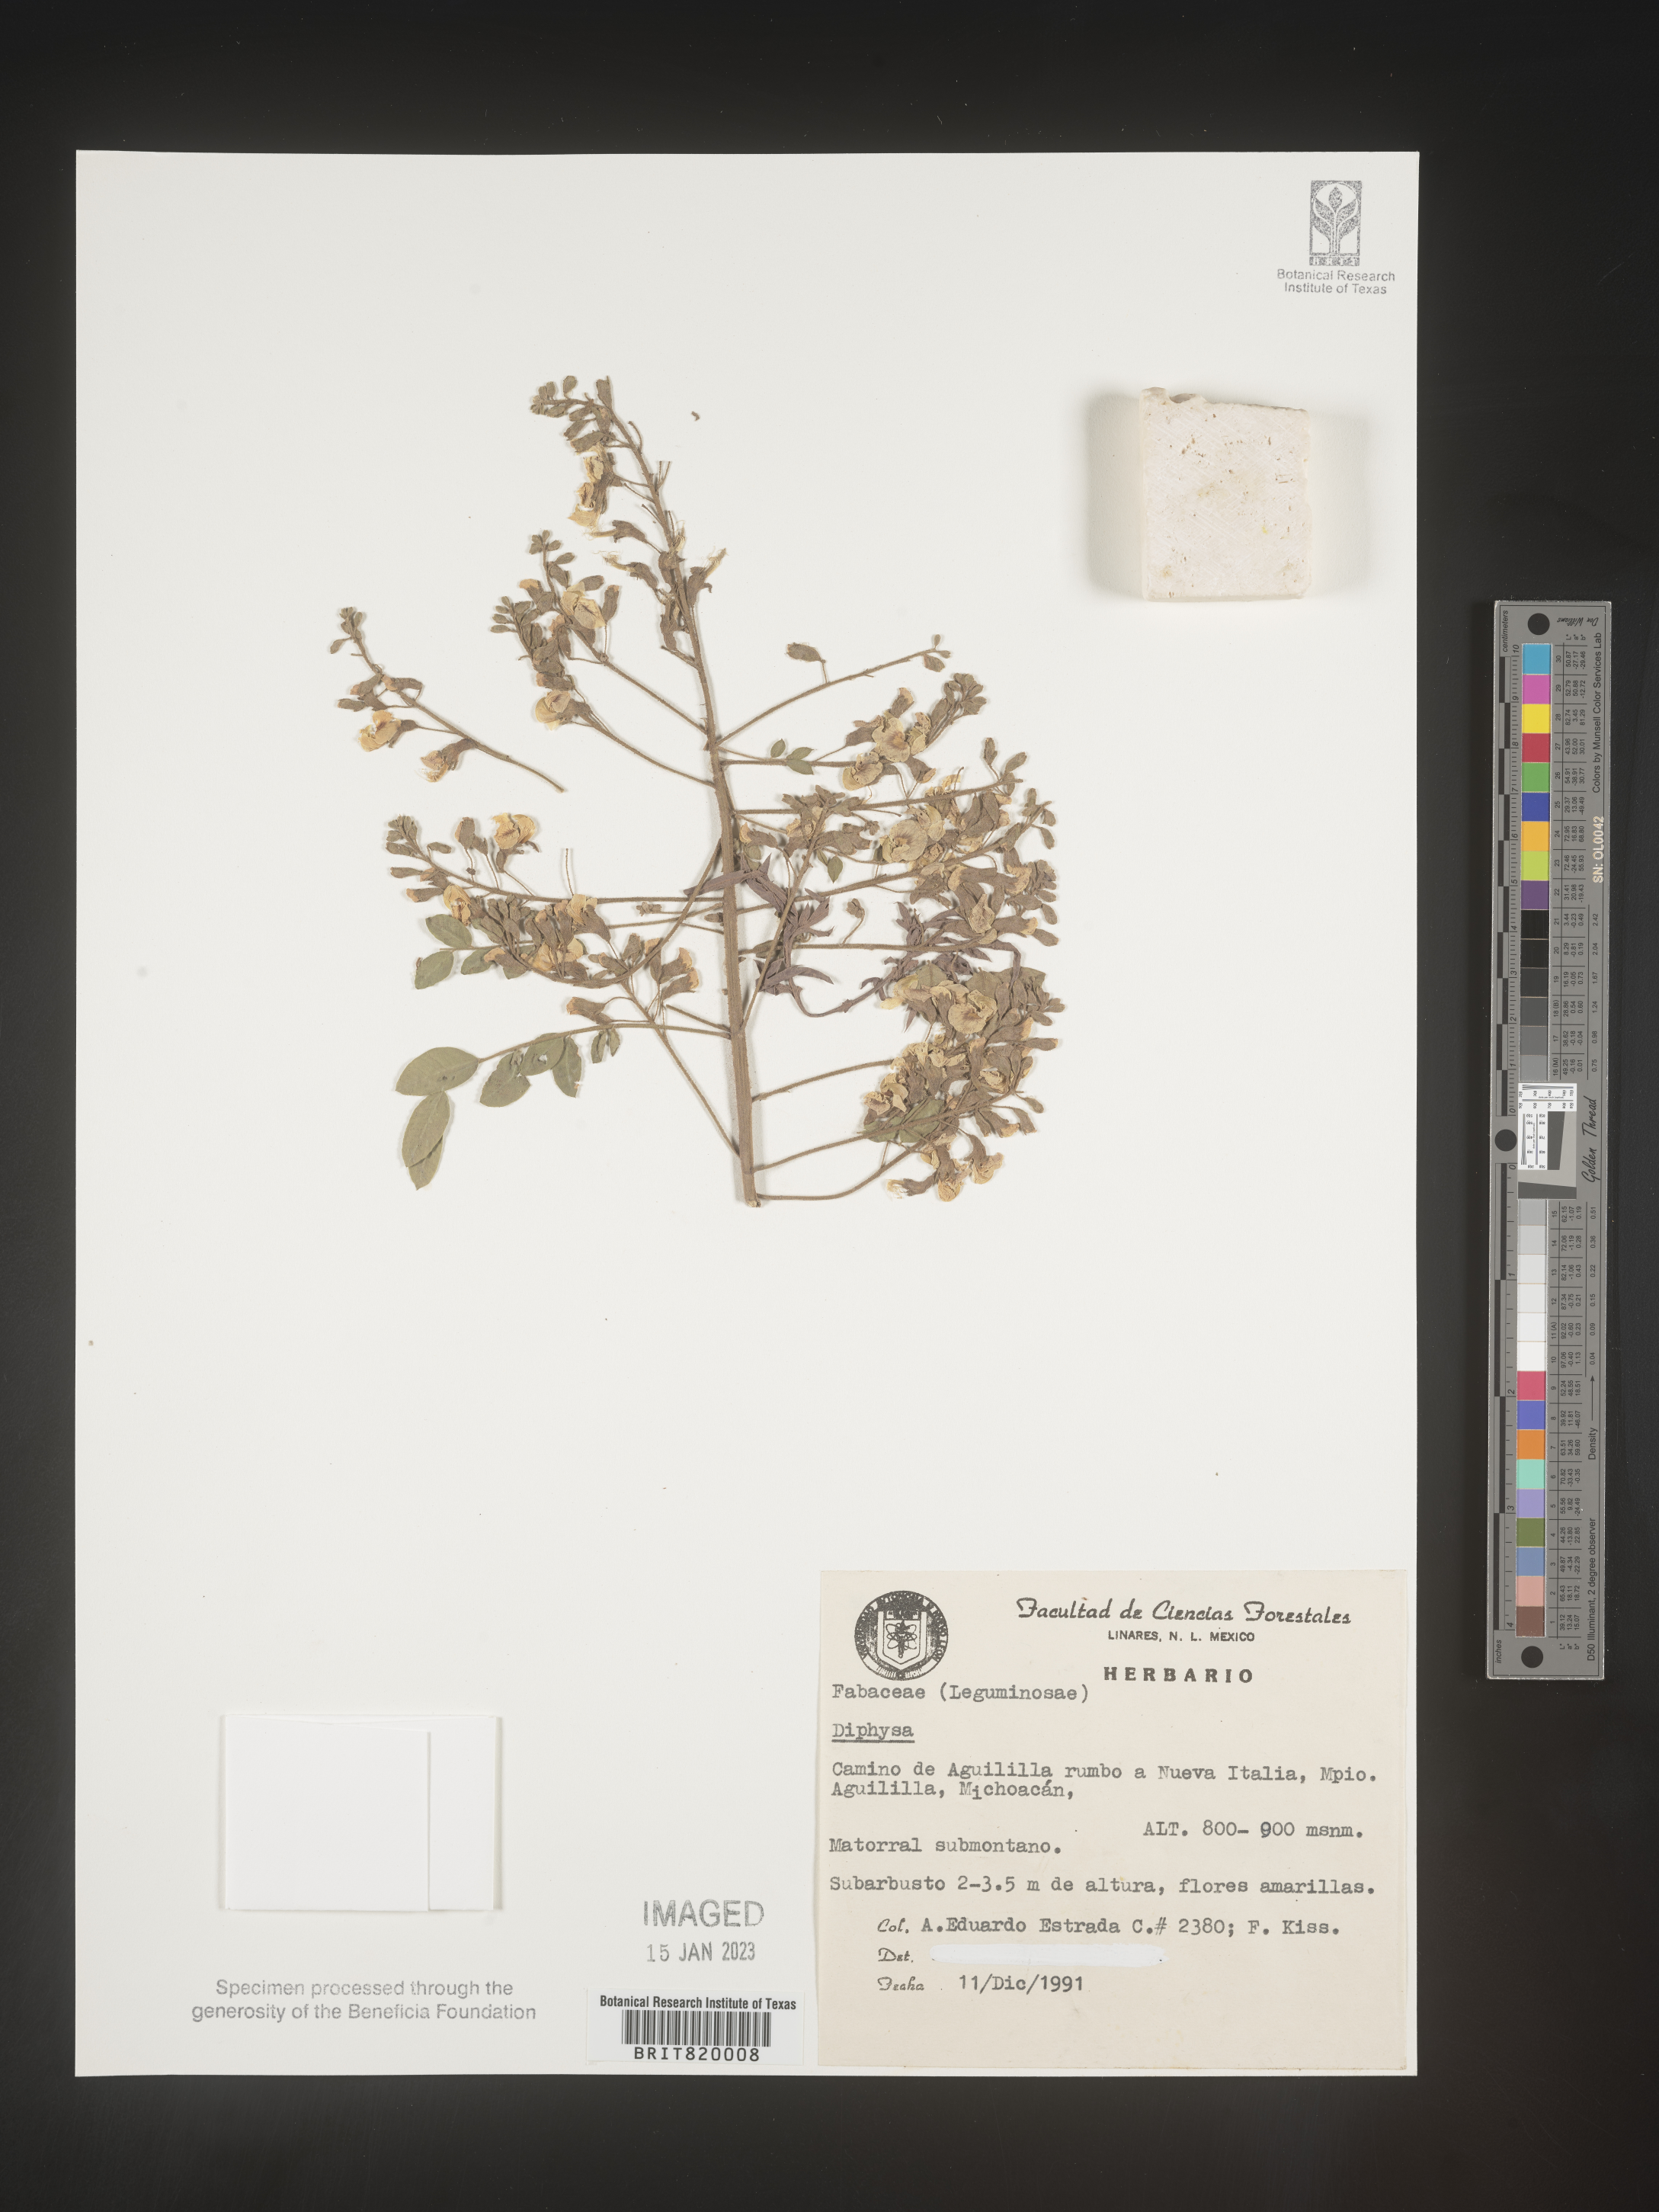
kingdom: Plantae
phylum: Tracheophyta
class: Magnoliopsida
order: Fabales
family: Fabaceae
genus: Diphysa
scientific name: Diphysa
